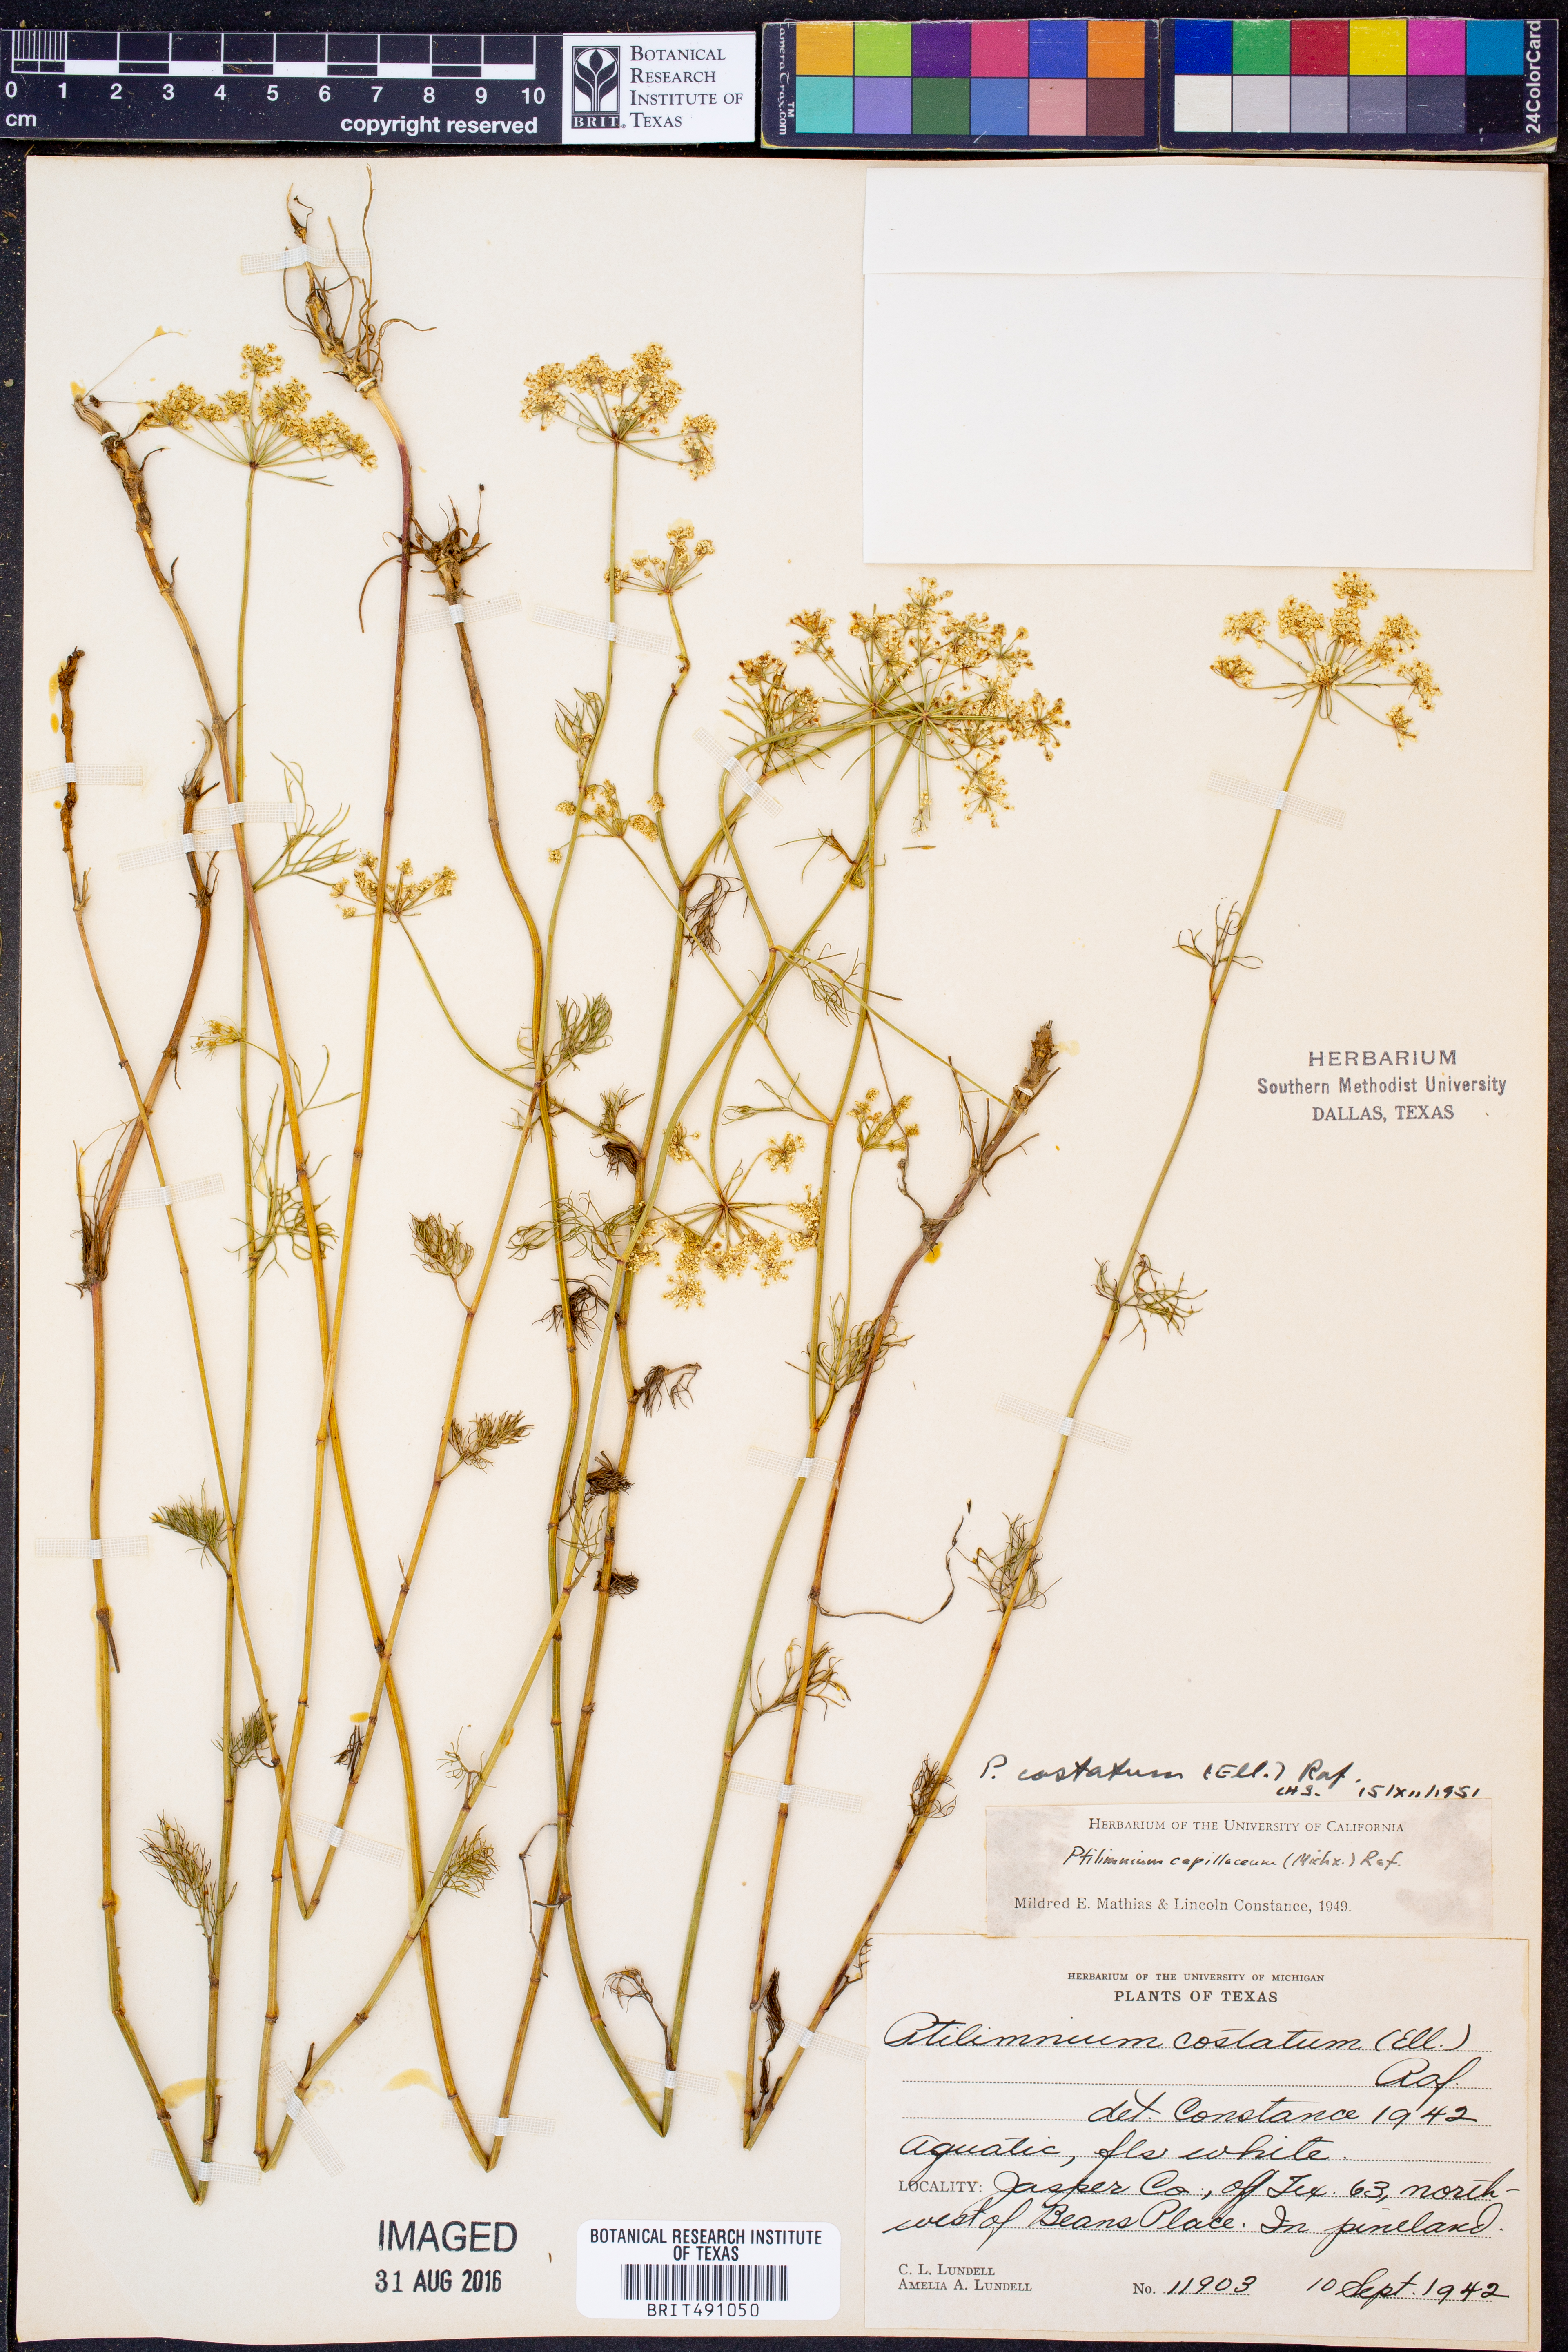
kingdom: Plantae
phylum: Tracheophyta
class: Magnoliopsida
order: Apiales
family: Apiaceae
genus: Ptilimnium
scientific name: Ptilimnium costatum
